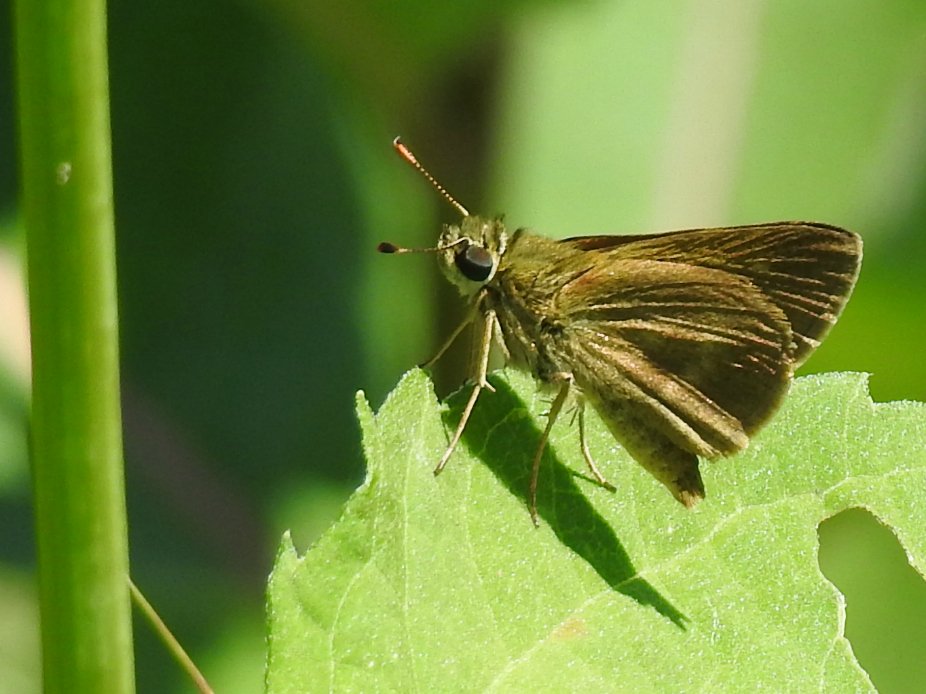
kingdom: Animalia
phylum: Arthropoda
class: Insecta
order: Lepidoptera
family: Hesperiidae
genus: Euphyes
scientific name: Euphyes vestris
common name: Dun Skipper
